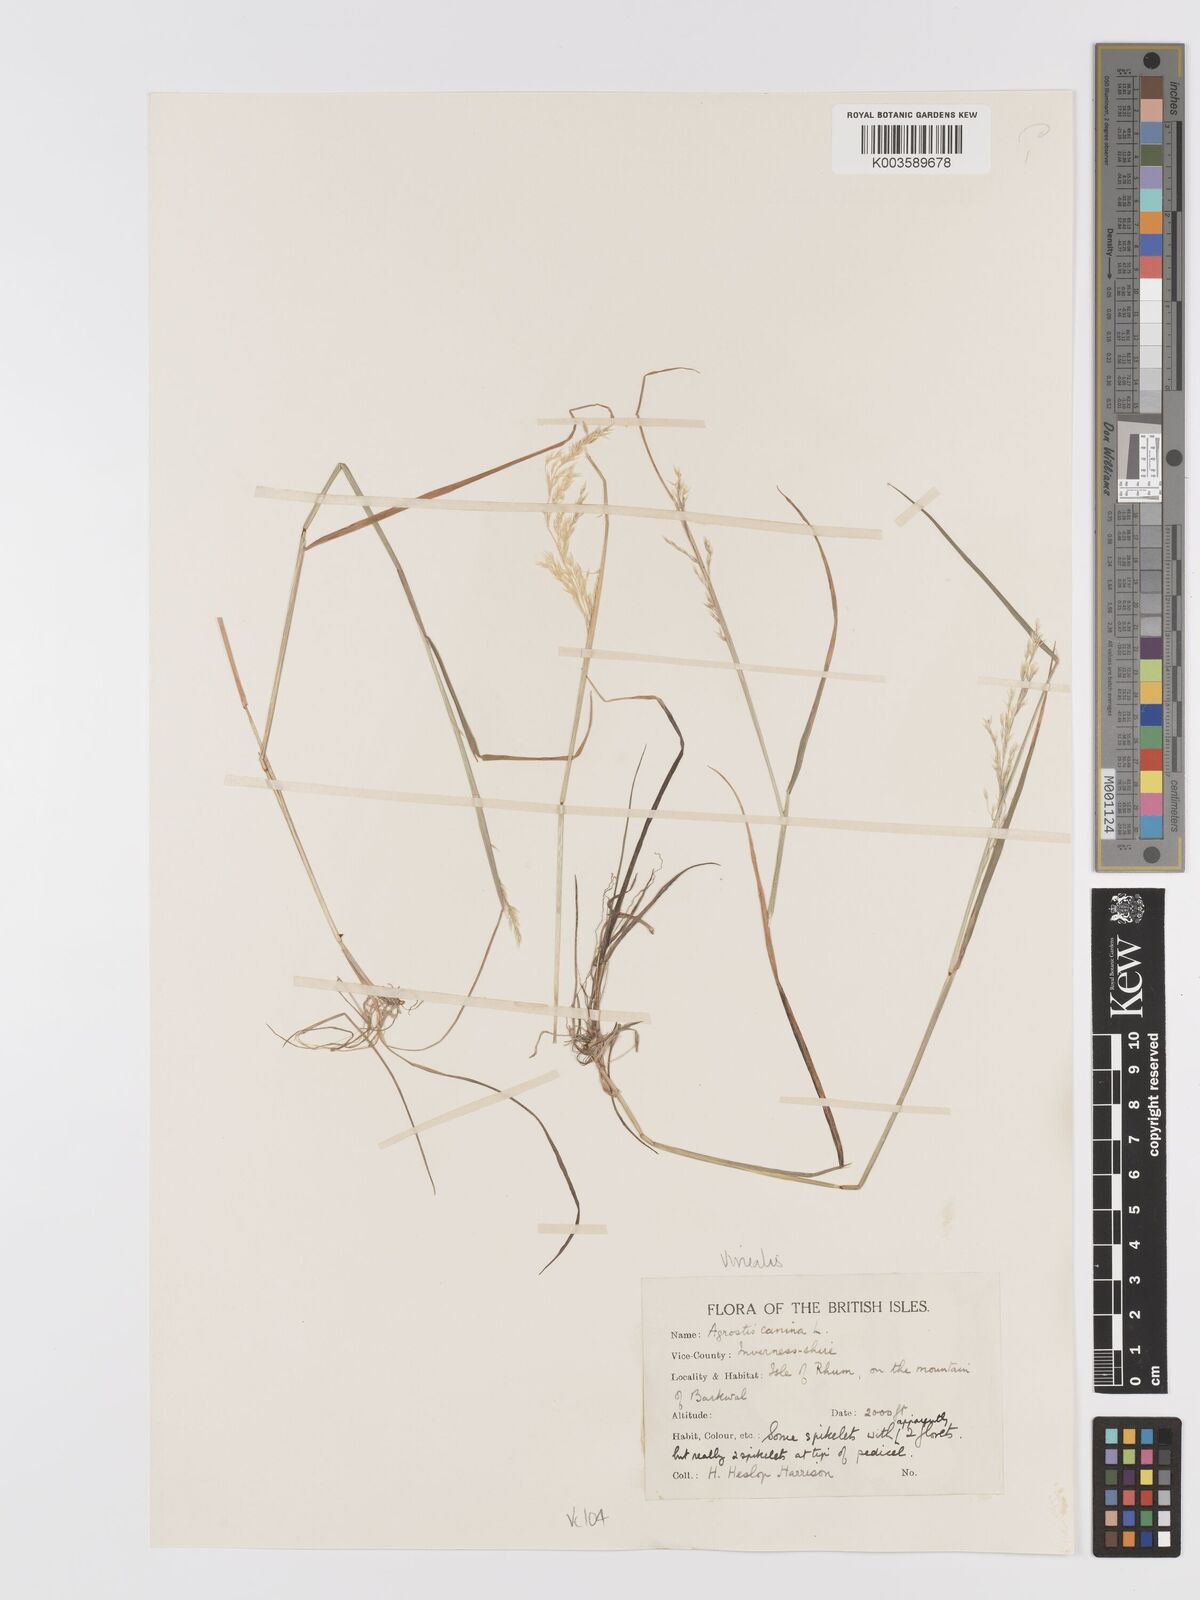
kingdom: Plantae
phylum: Tracheophyta
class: Liliopsida
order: Poales
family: Poaceae
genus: Agrostis
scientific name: Agrostis
